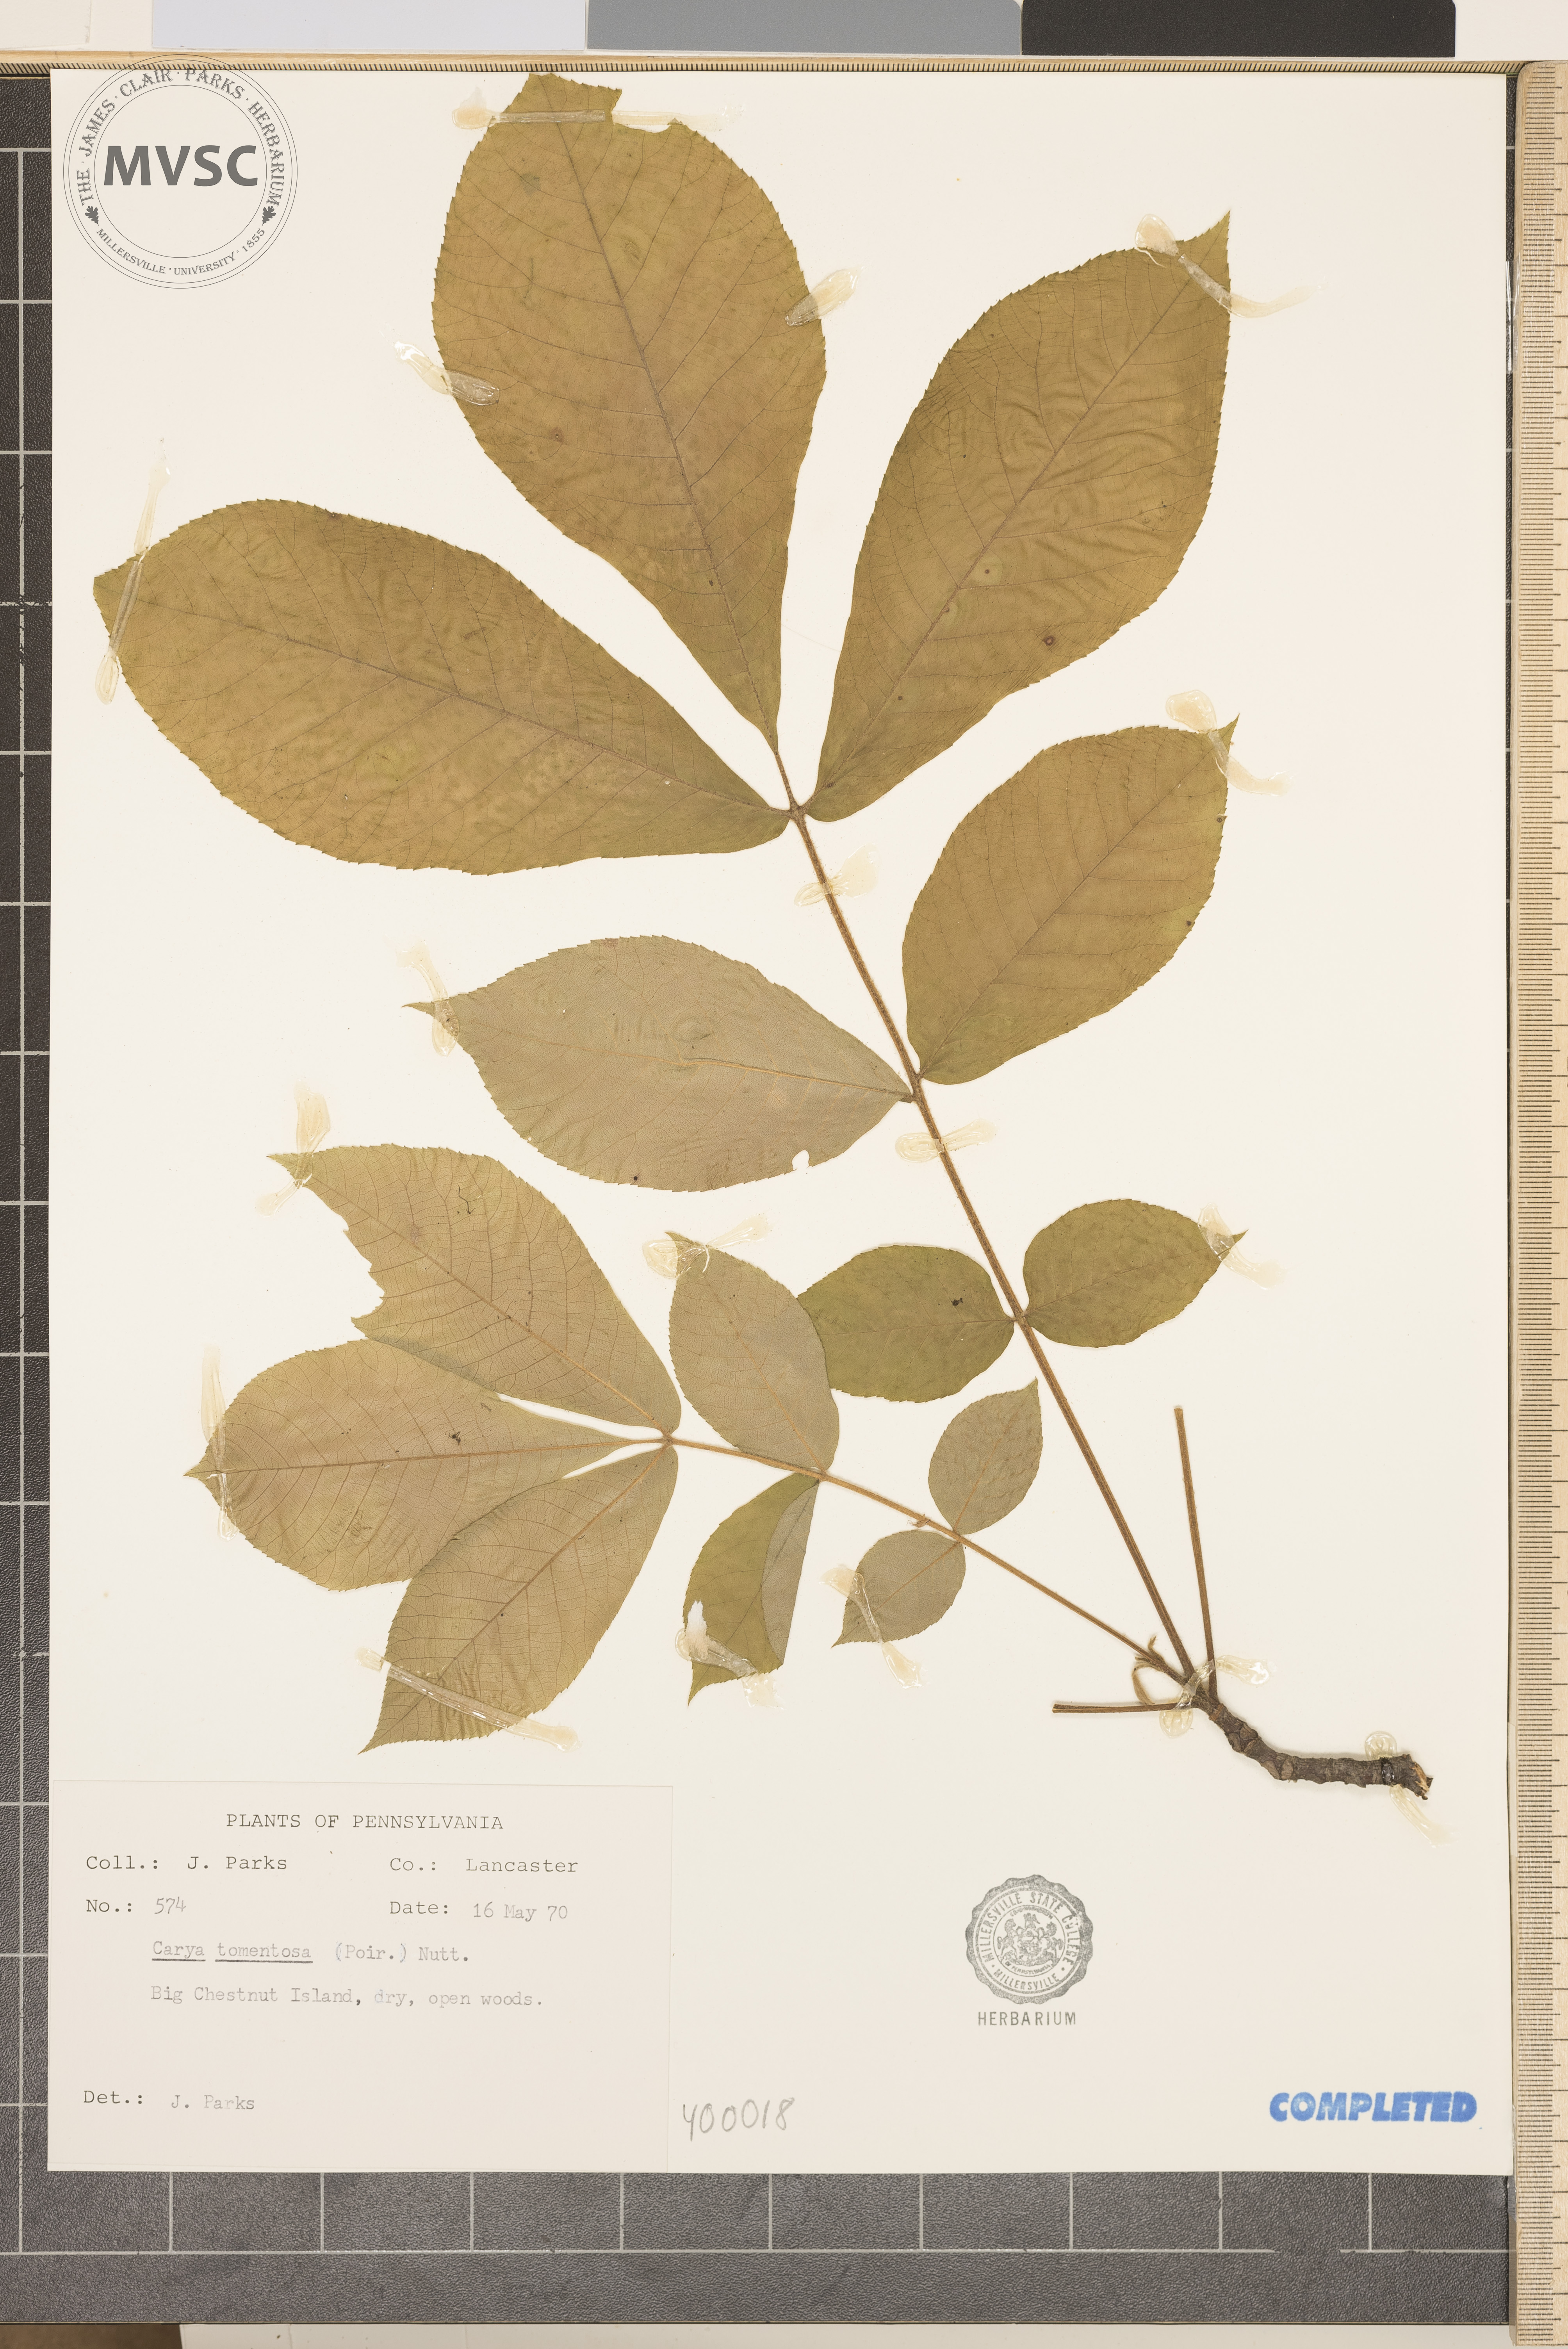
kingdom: Plantae
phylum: Tracheophyta
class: Magnoliopsida
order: Fagales
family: Juglandaceae
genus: Carya
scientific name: Carya alba
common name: mockernut hickory
